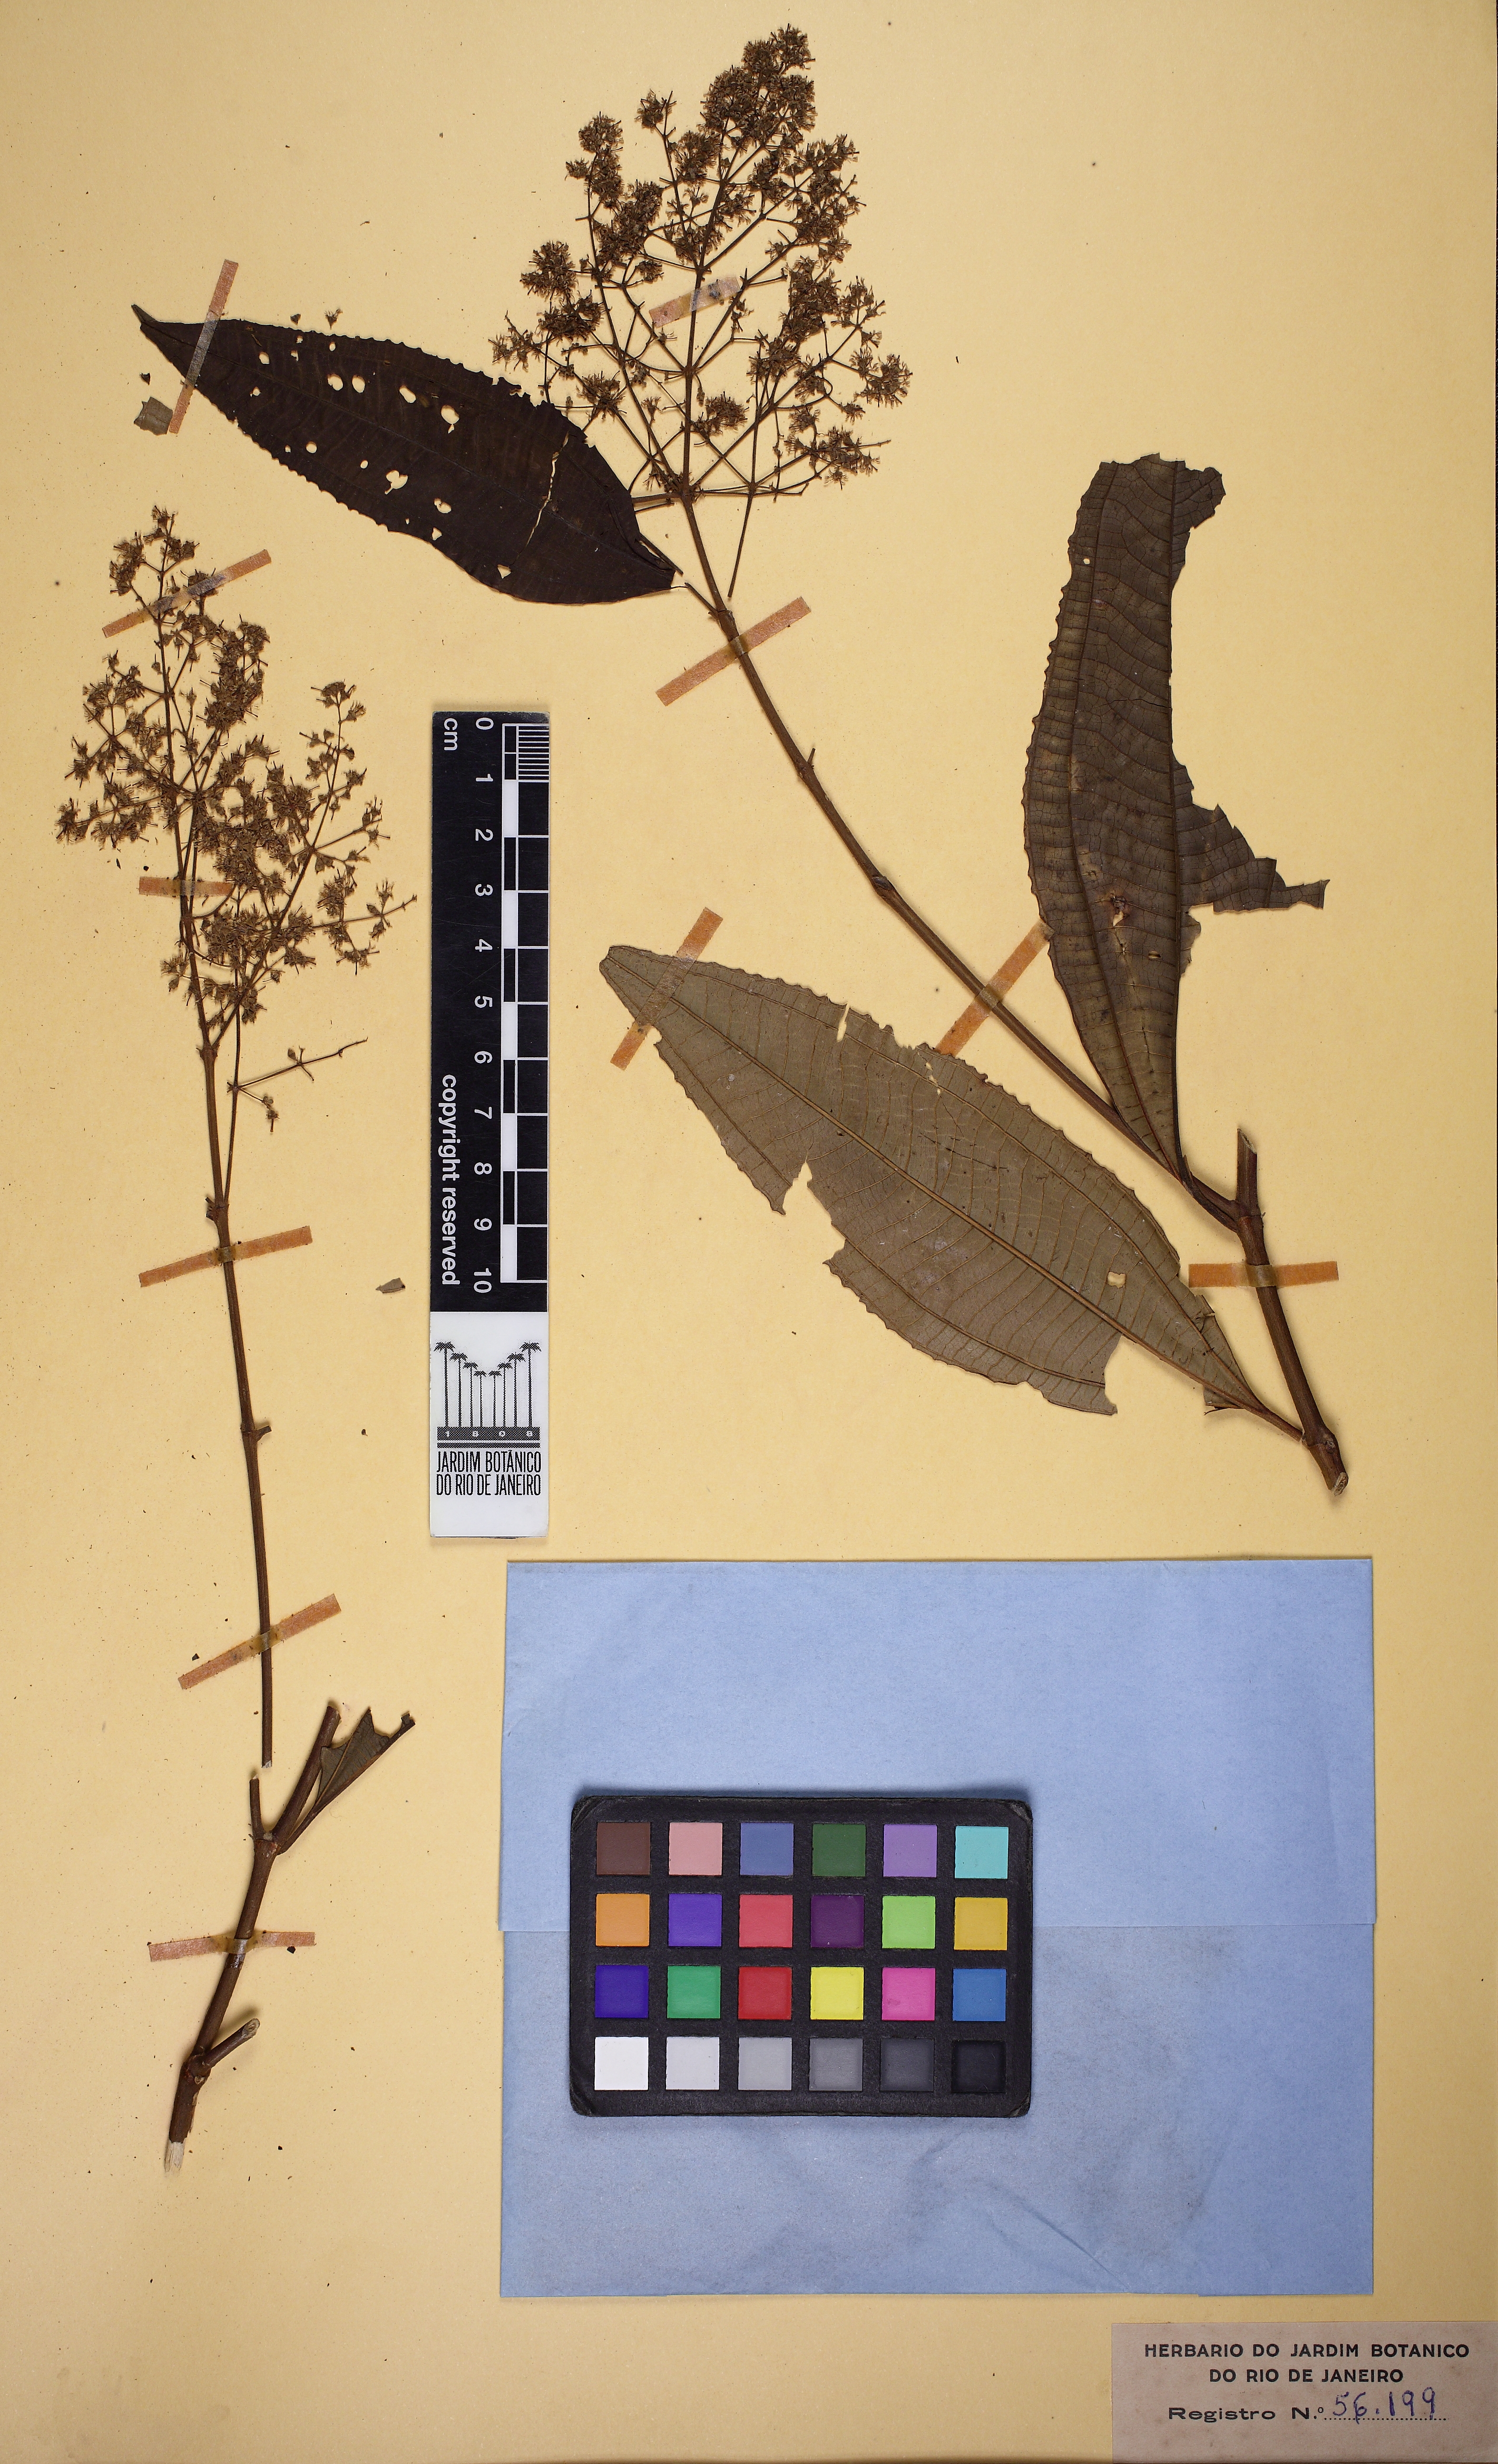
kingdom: Plantae
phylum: Tracheophyta
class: Magnoliopsida
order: Myrtales
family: Melastomataceae
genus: Miconia
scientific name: Miconia latecrenata
